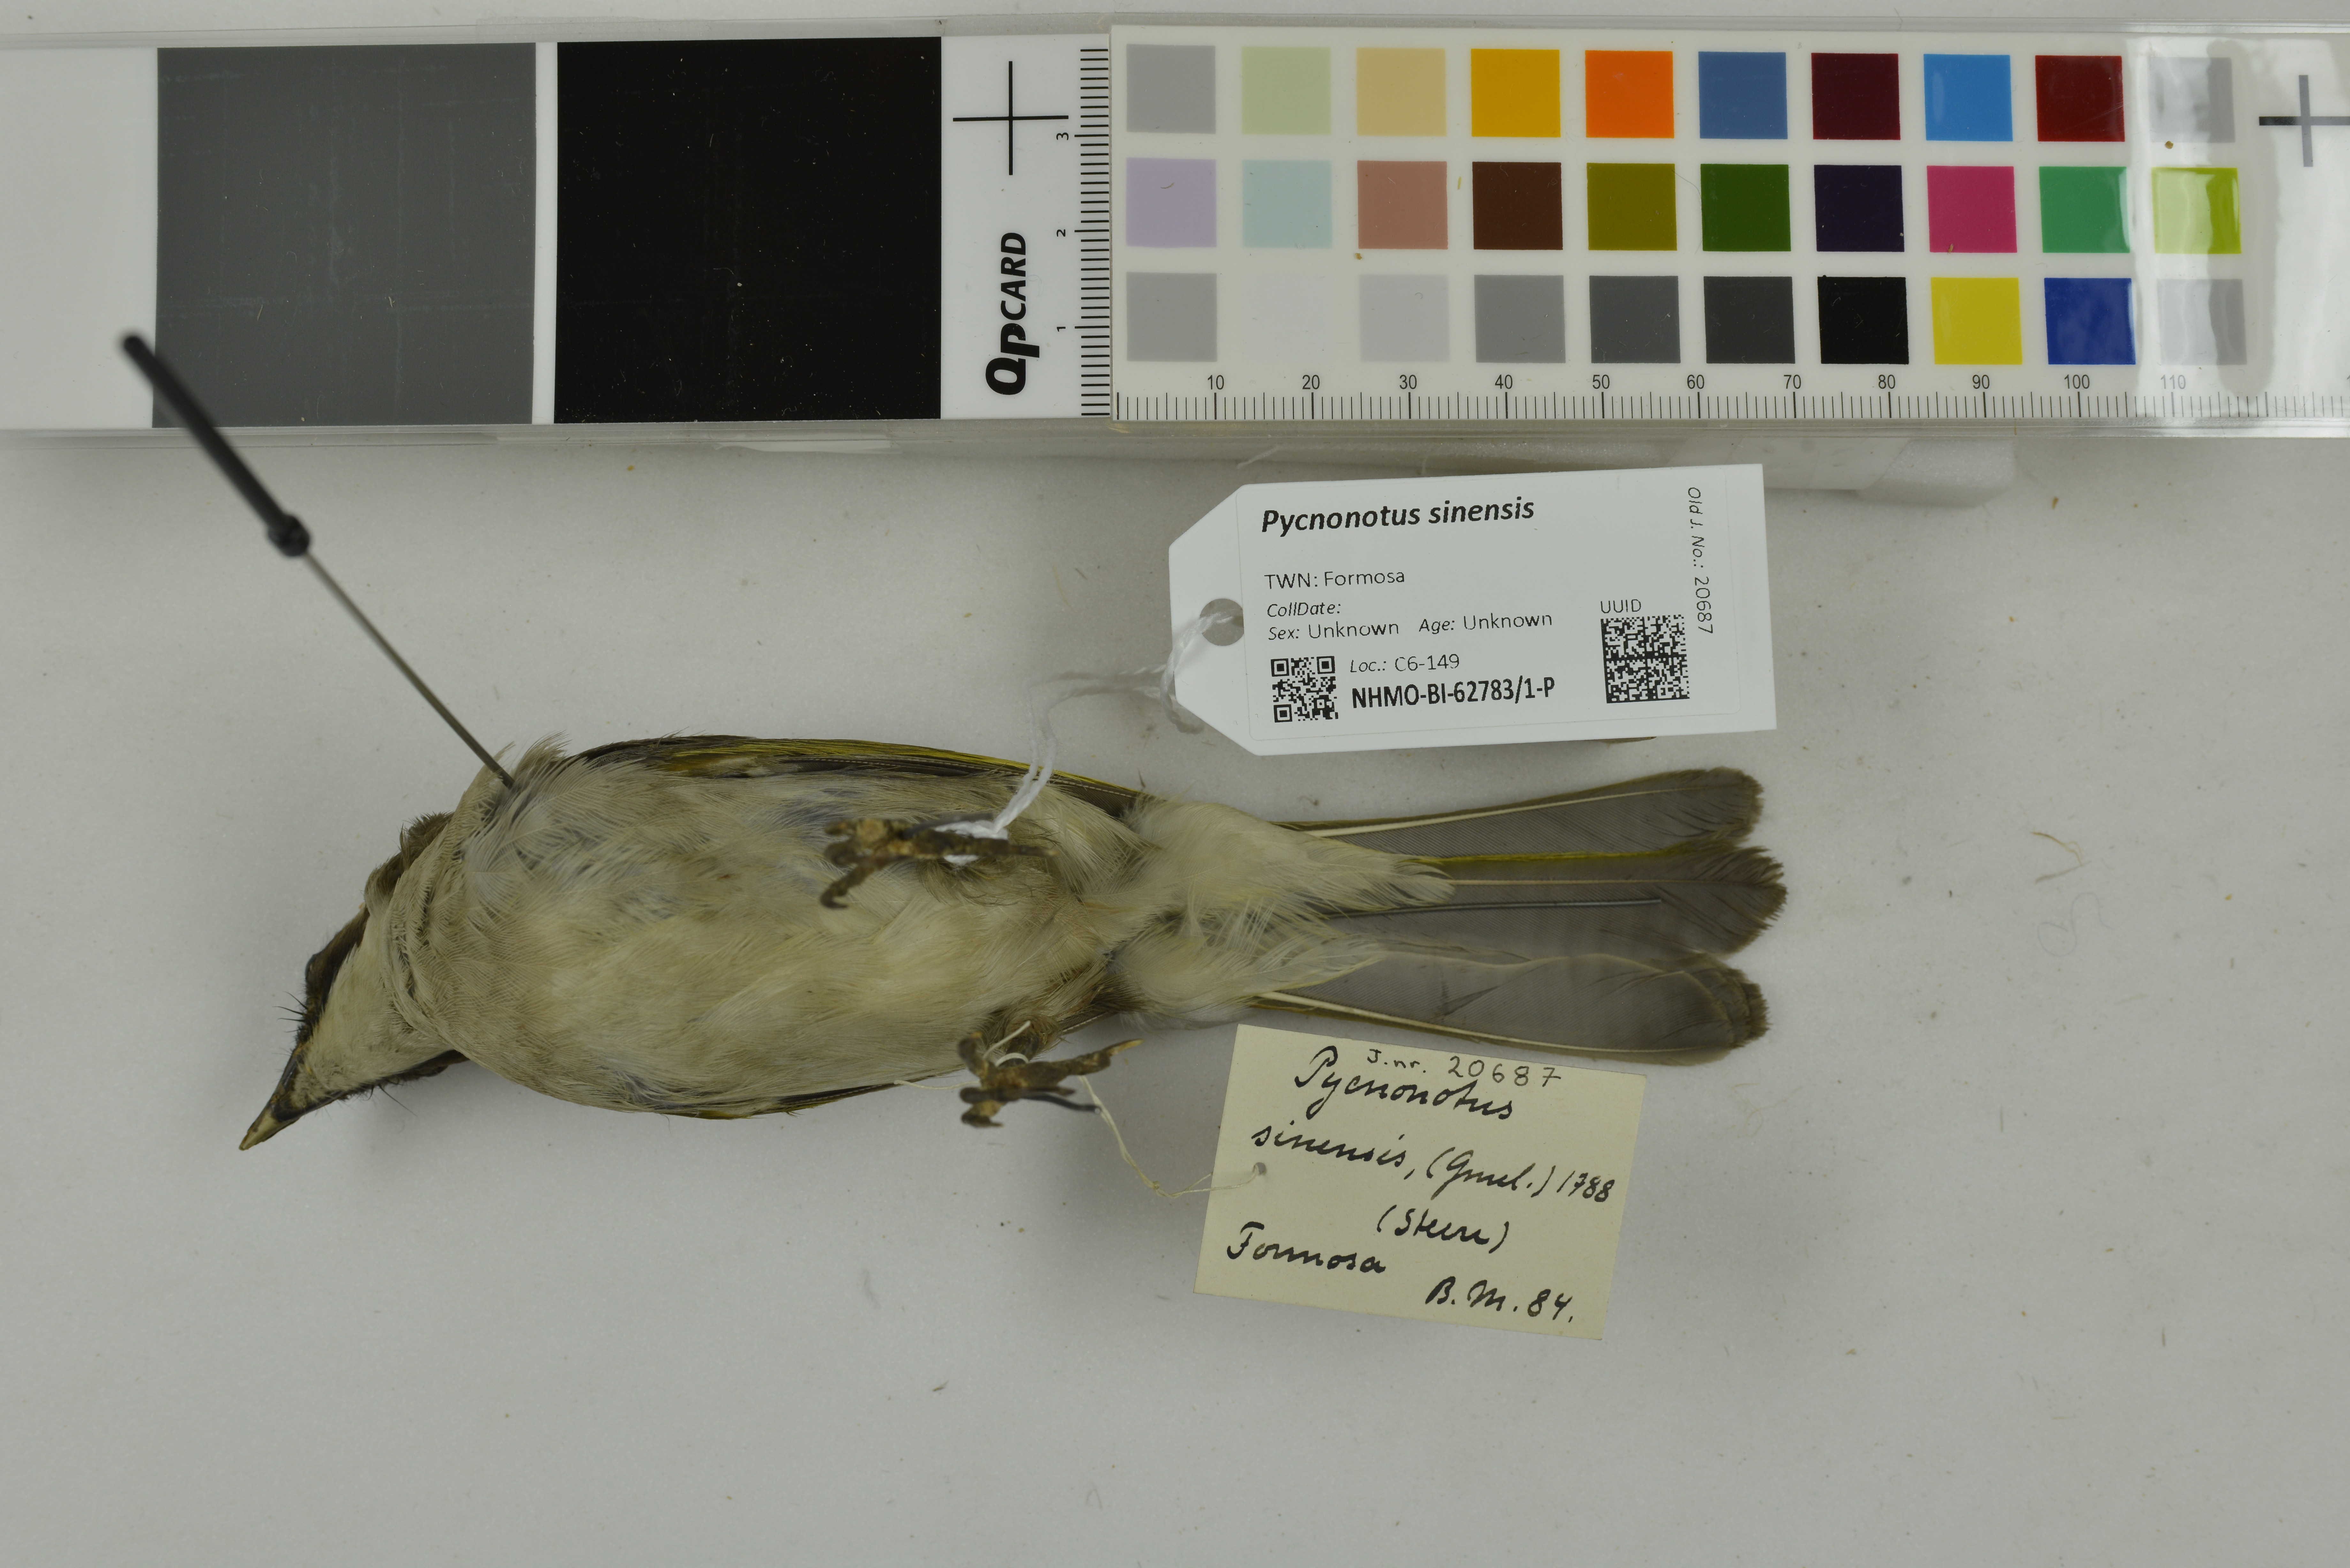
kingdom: Animalia
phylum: Chordata
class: Aves
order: Passeriformes
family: Pycnonotidae
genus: Pycnonotus
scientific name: Pycnonotus sinensis
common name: Light-vented bulbul
